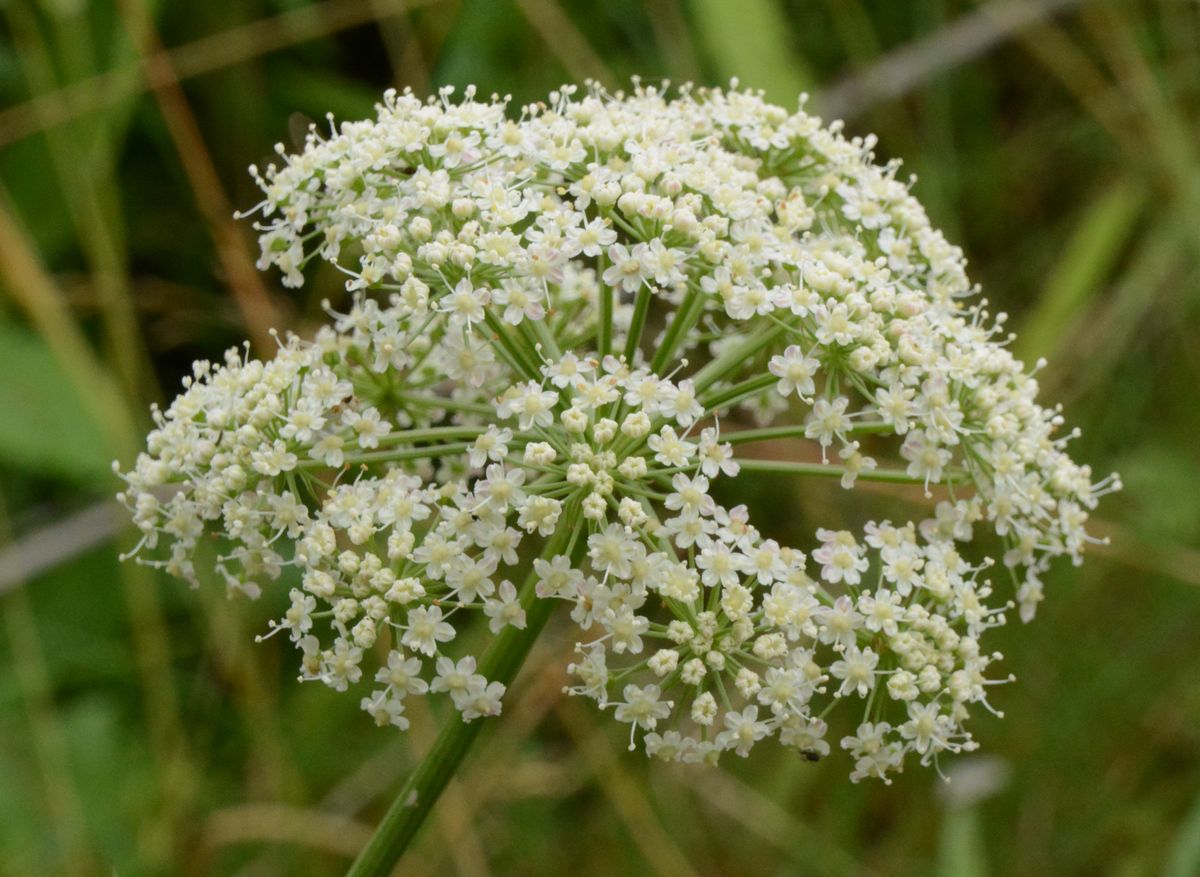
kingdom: Plantae
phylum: Tracheophyta
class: Magnoliopsida
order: Apiales
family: Apiaceae
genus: Cenolophium
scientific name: Cenolophium fischeri
